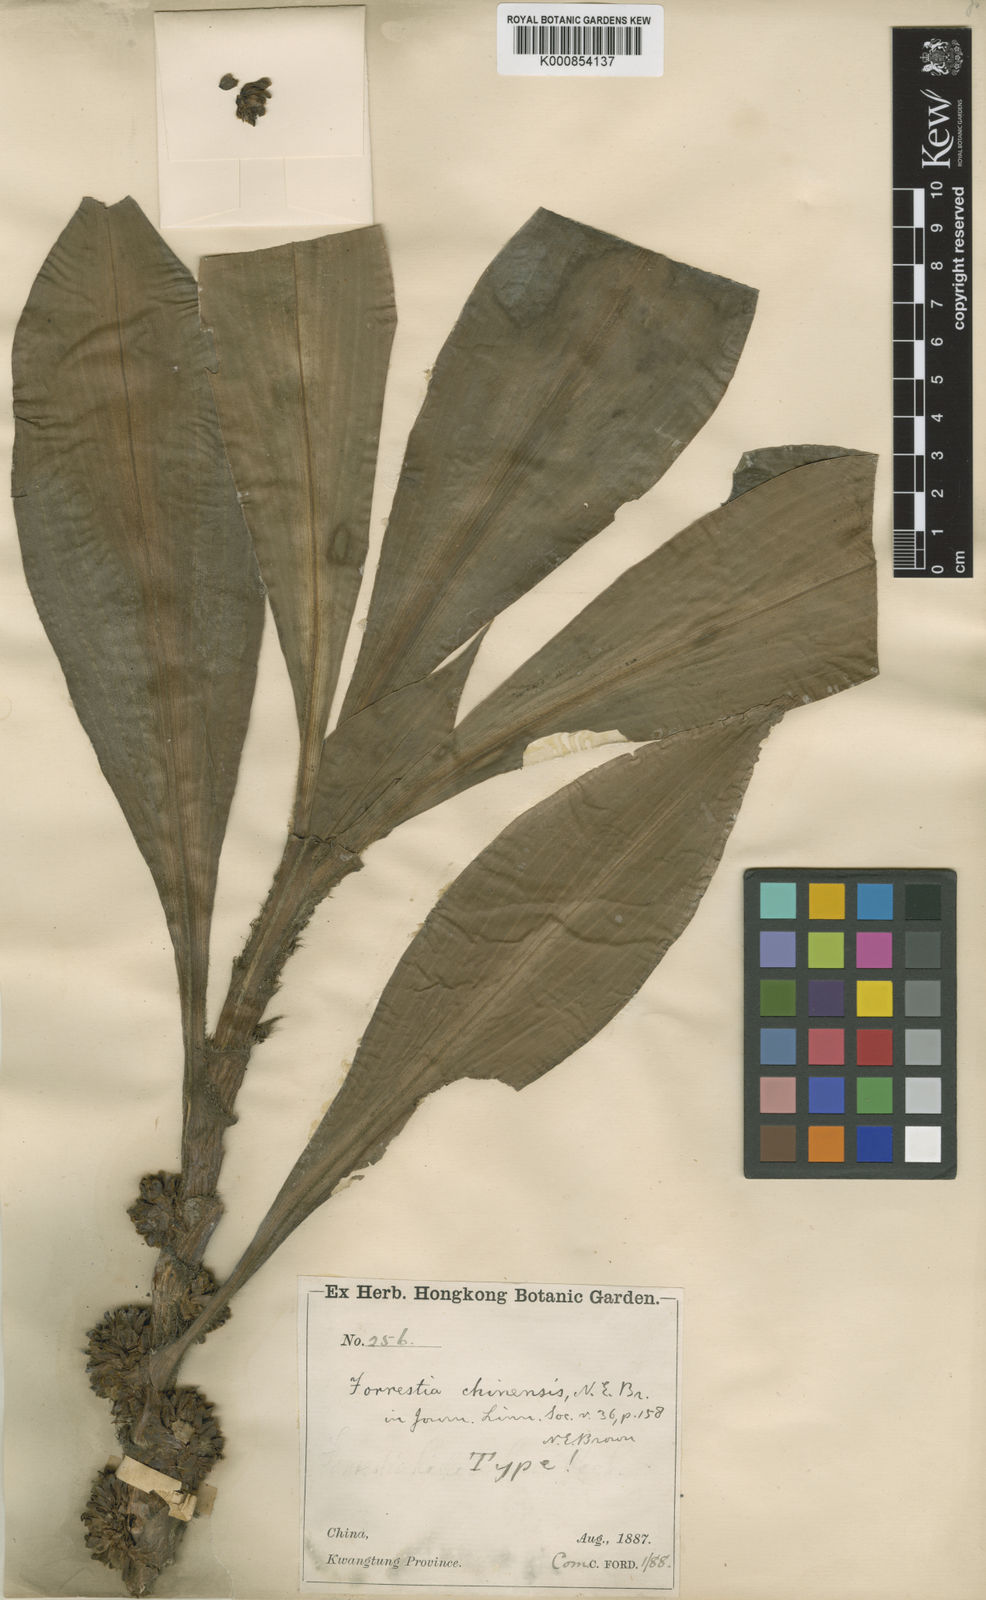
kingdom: Plantae
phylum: Tracheophyta
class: Liliopsida
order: Commelinales
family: Commelinaceae
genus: Amischotolype
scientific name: Amischotolype hispida
